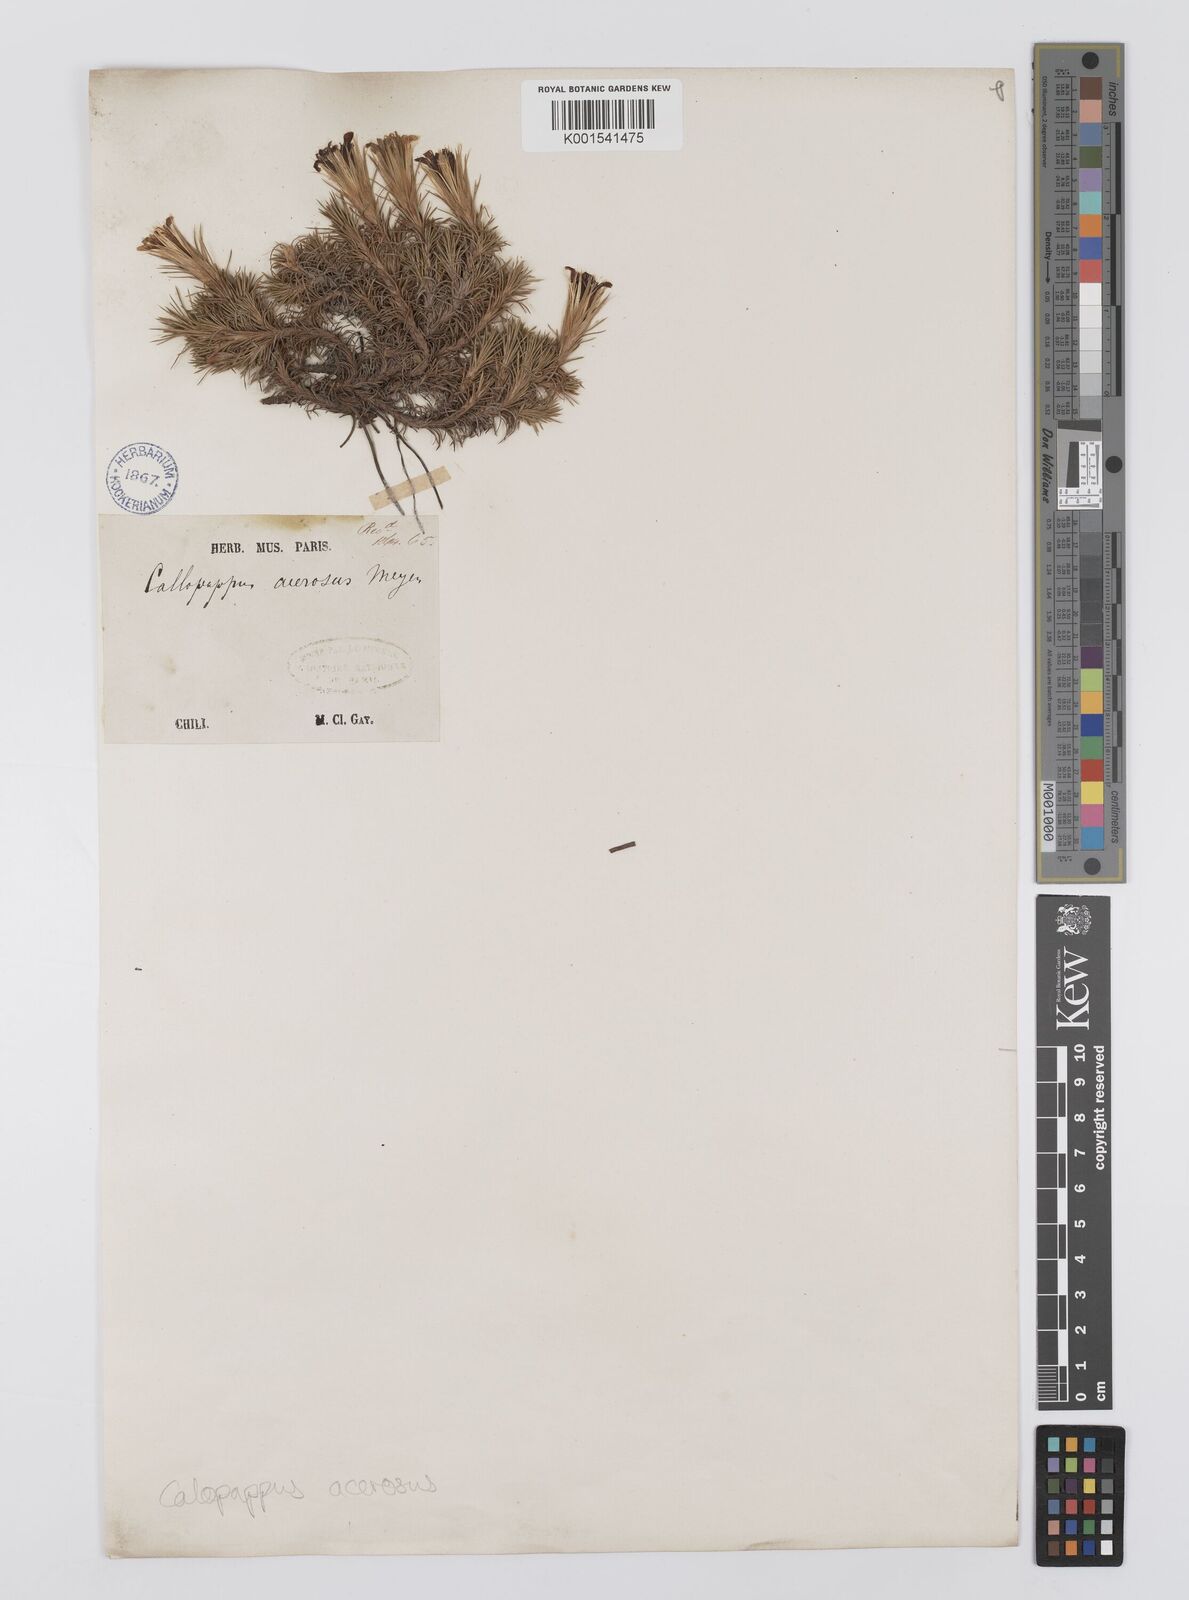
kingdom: Plantae
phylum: Tracheophyta
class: Magnoliopsida
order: Asterales
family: Asteraceae
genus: Nassauvia
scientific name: Nassauvia acerosa
